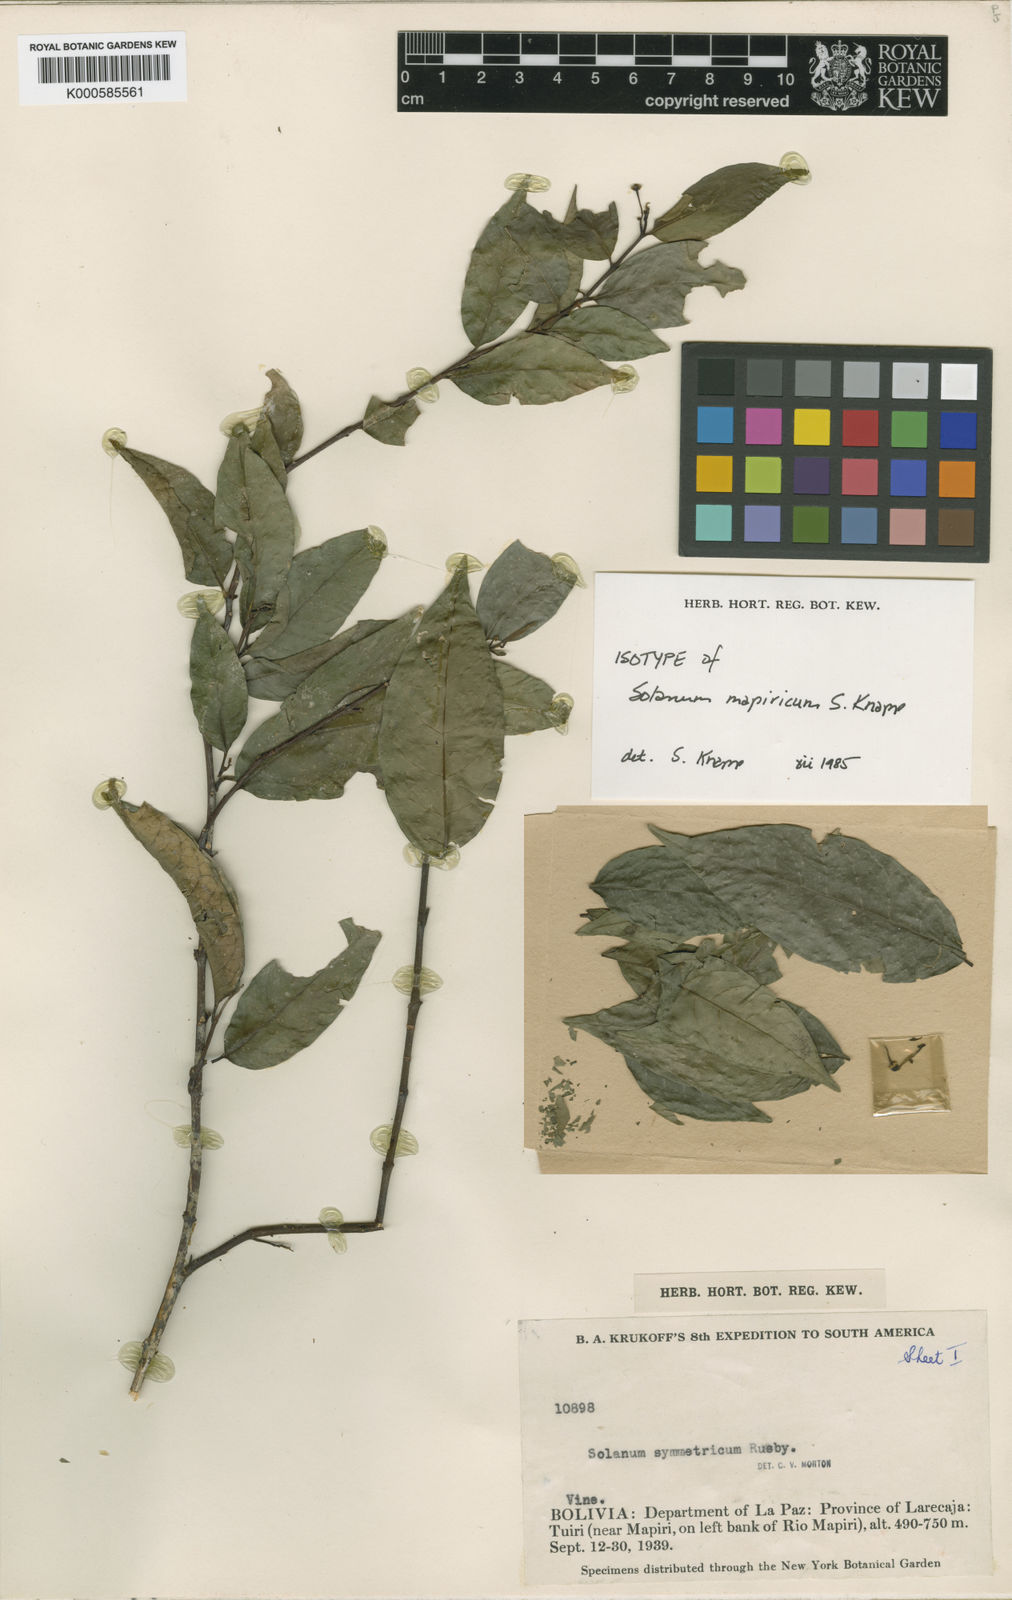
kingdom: Plantae
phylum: Tracheophyta
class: Magnoliopsida
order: Solanales
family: Solanaceae
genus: Solanum
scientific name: Solanum mapiricum
